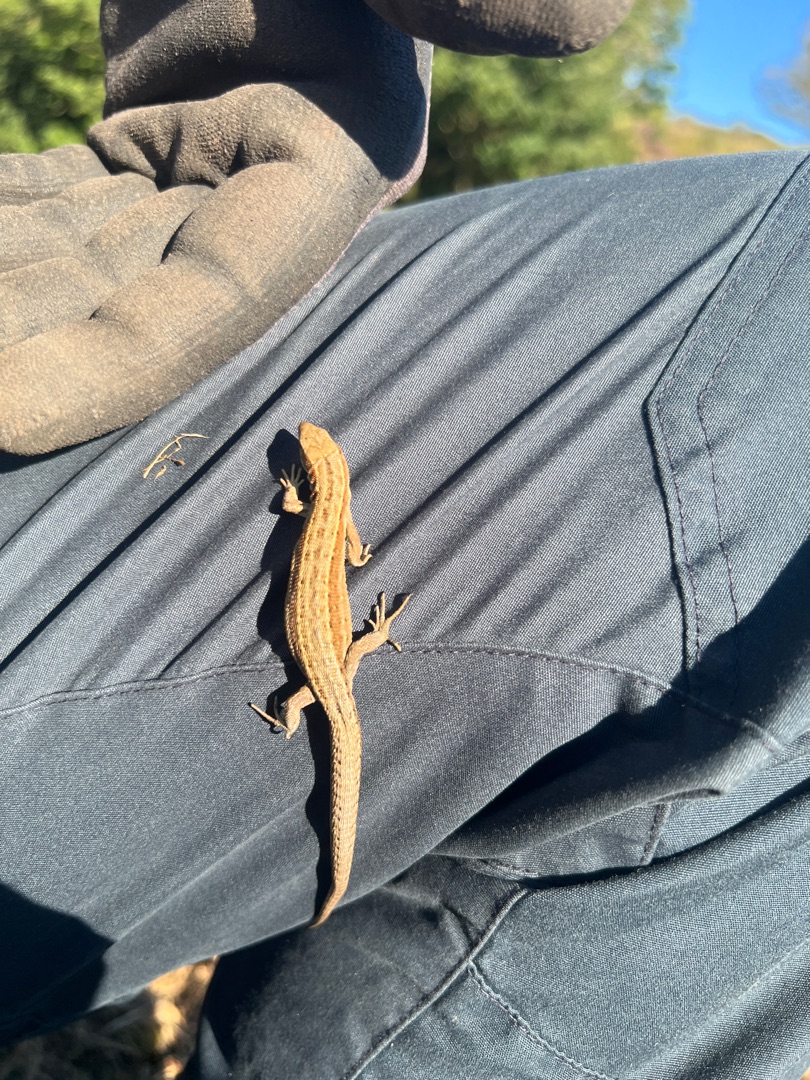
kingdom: Animalia
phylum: Chordata
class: Squamata
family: Lacertidae
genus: Zootoca
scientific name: Zootoca vivipara
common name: Skovfirben
